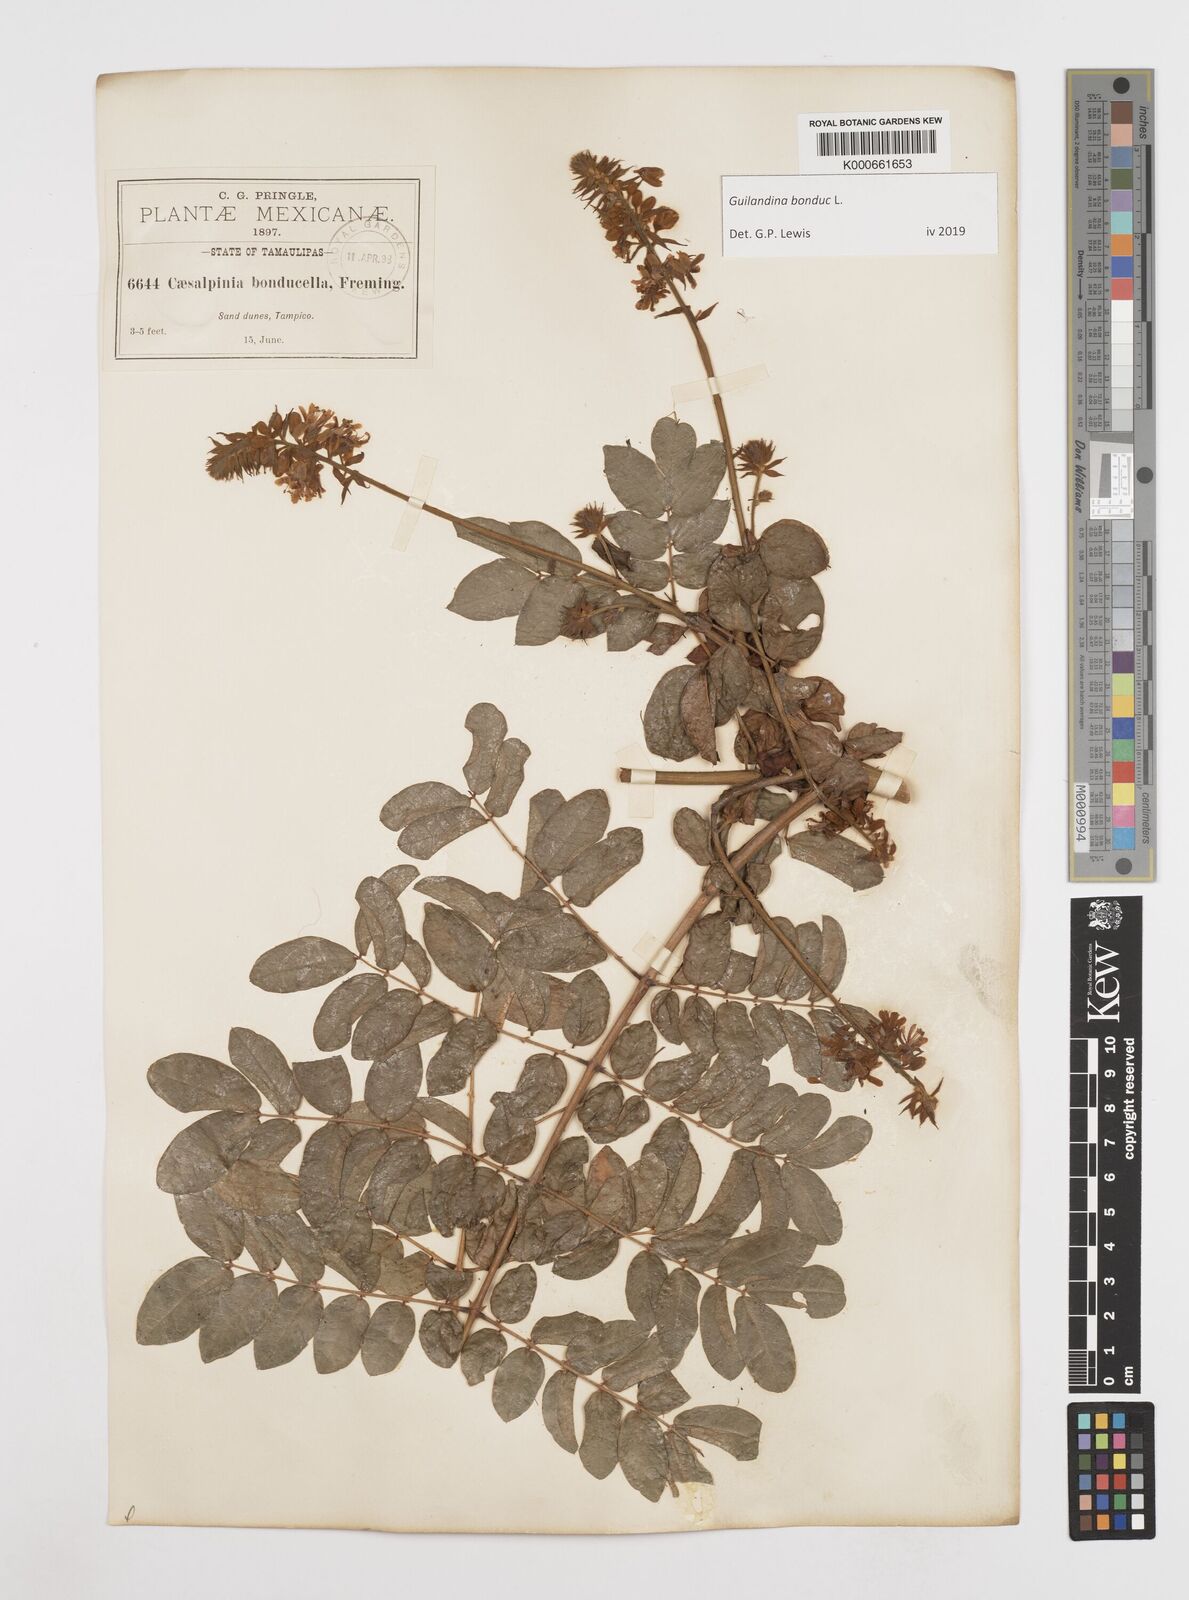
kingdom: Plantae
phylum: Tracheophyta
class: Magnoliopsida
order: Asterales
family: Goodeniaceae
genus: Scaevola
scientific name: Scaevola taccada
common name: Sea lettucetree
